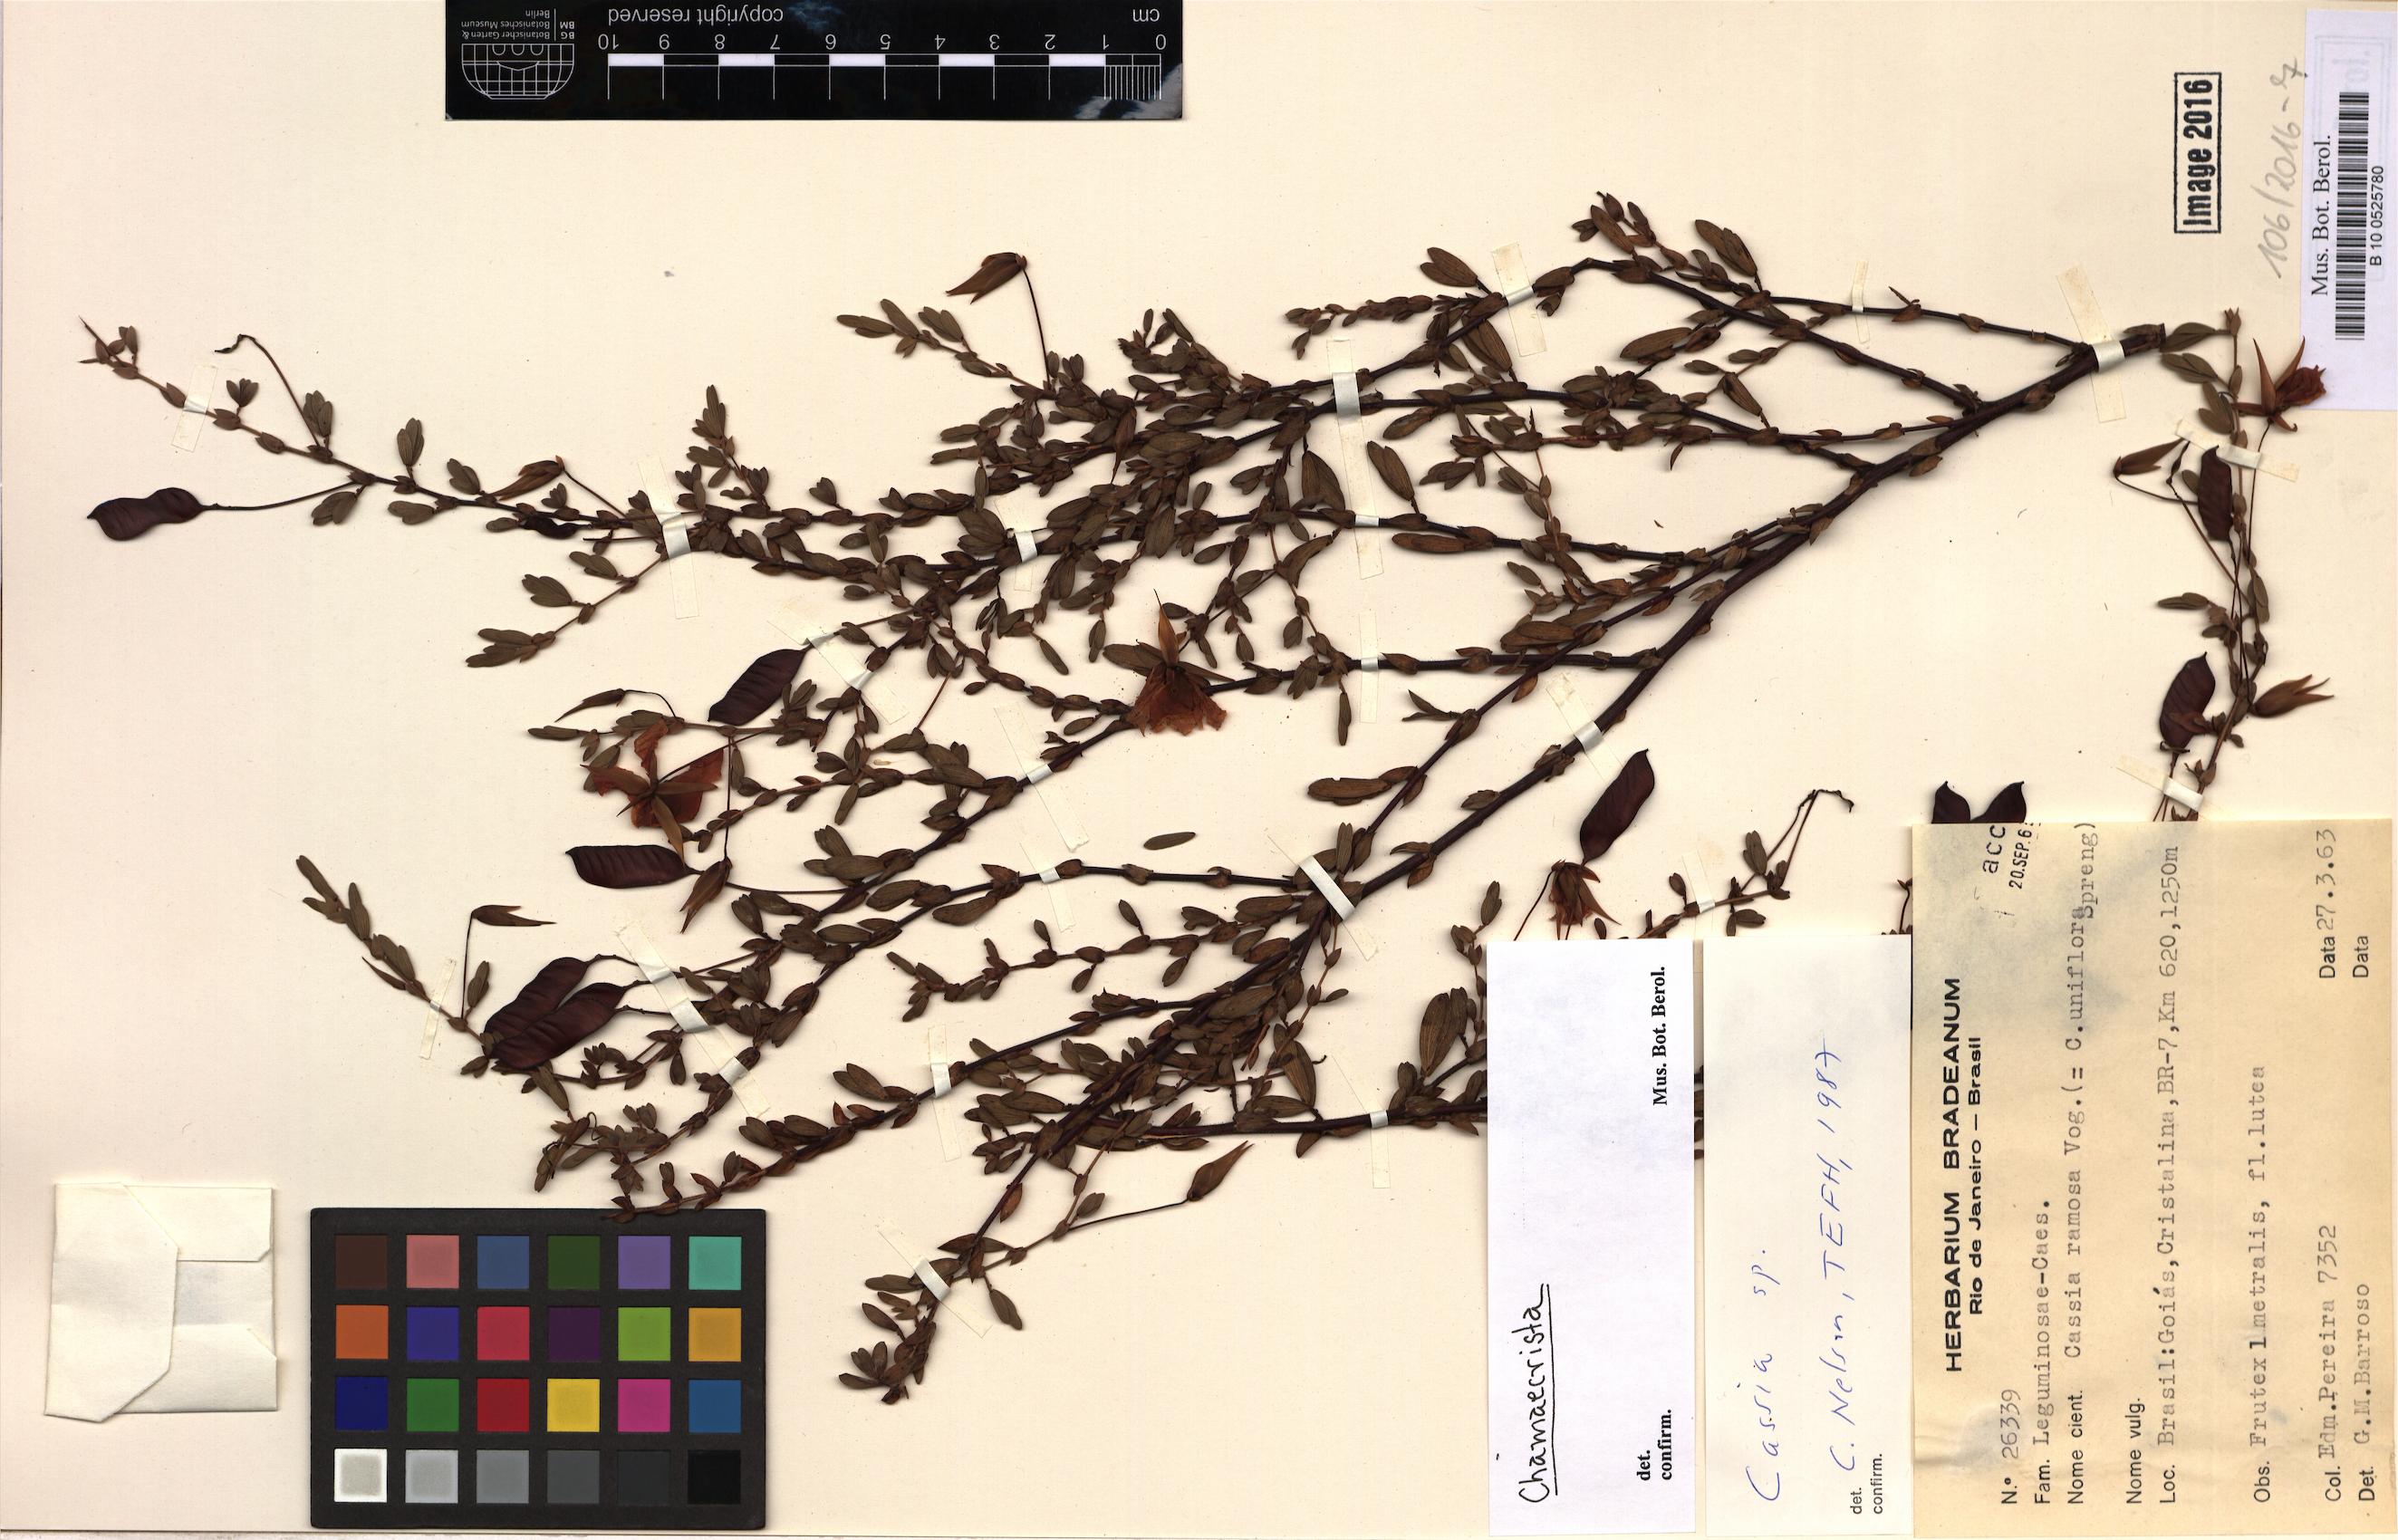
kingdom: Plantae
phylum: Tracheophyta
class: Magnoliopsida
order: Fabales
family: Fabaceae
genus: Chamaecrista
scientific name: Chamaecrista
